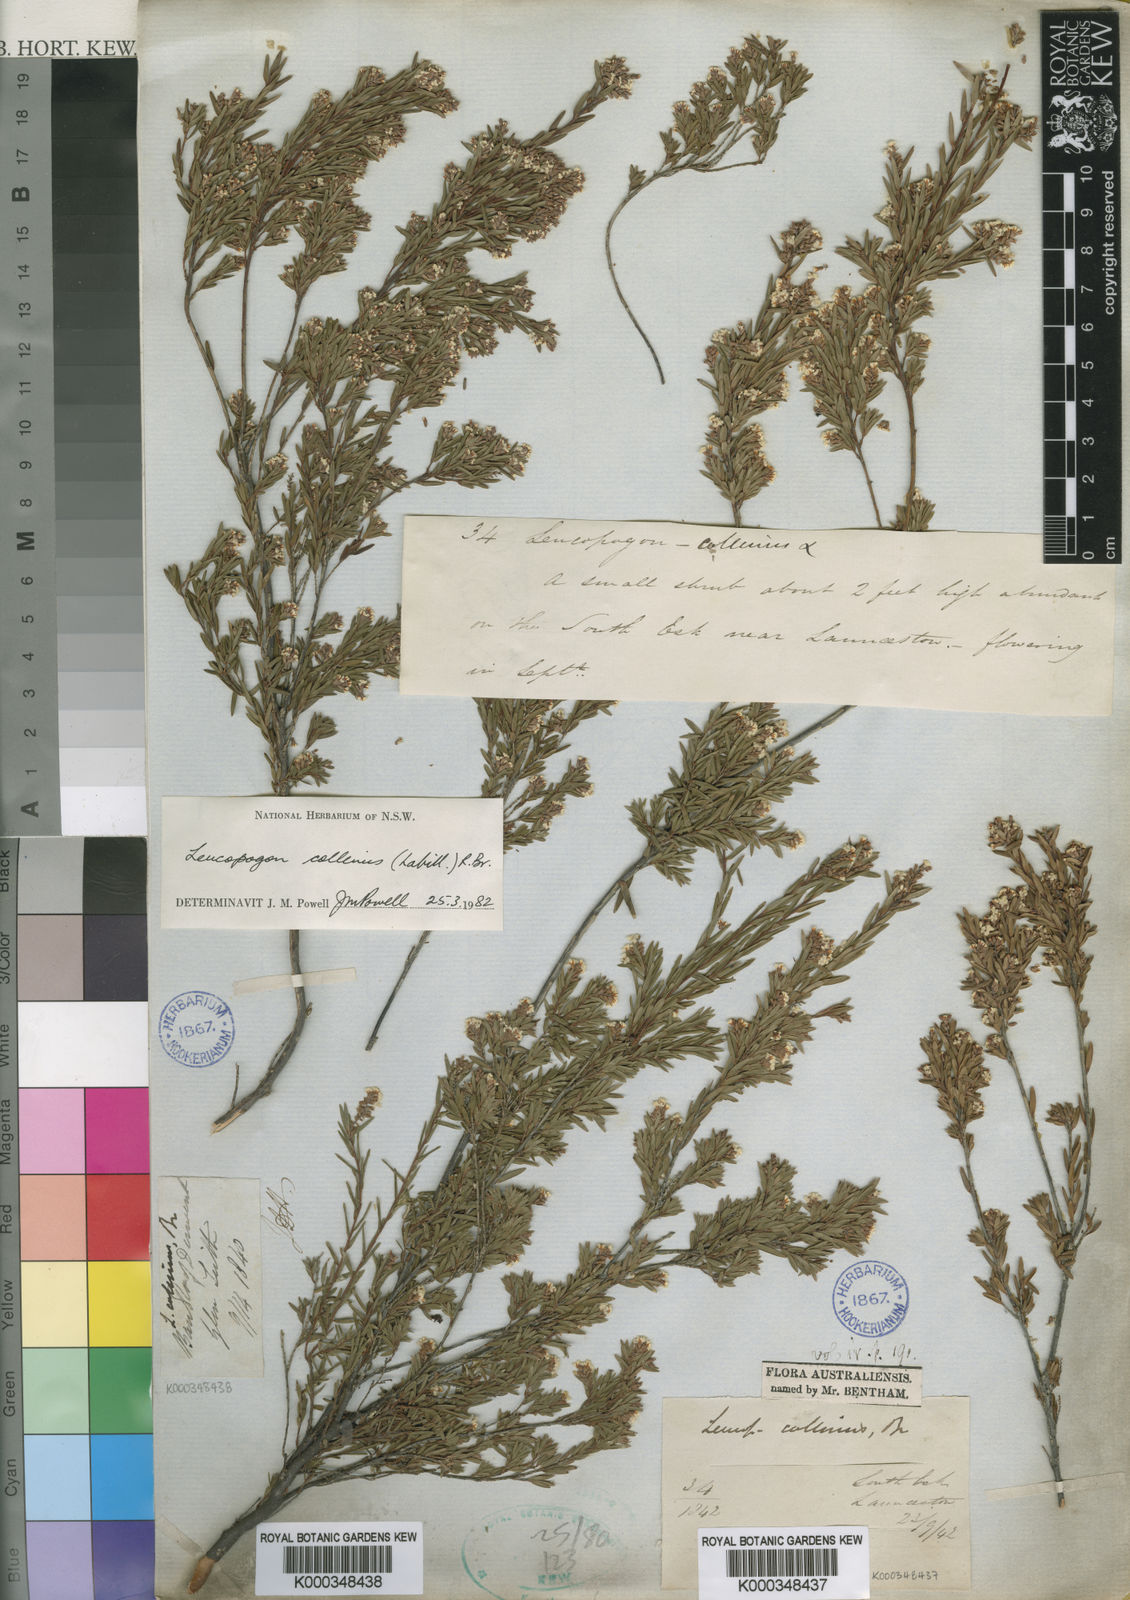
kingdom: Plantae
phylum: Tracheophyta
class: Magnoliopsida
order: Ericales
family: Ericaceae
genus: Leucopogon
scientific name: Leucopogon collinus
